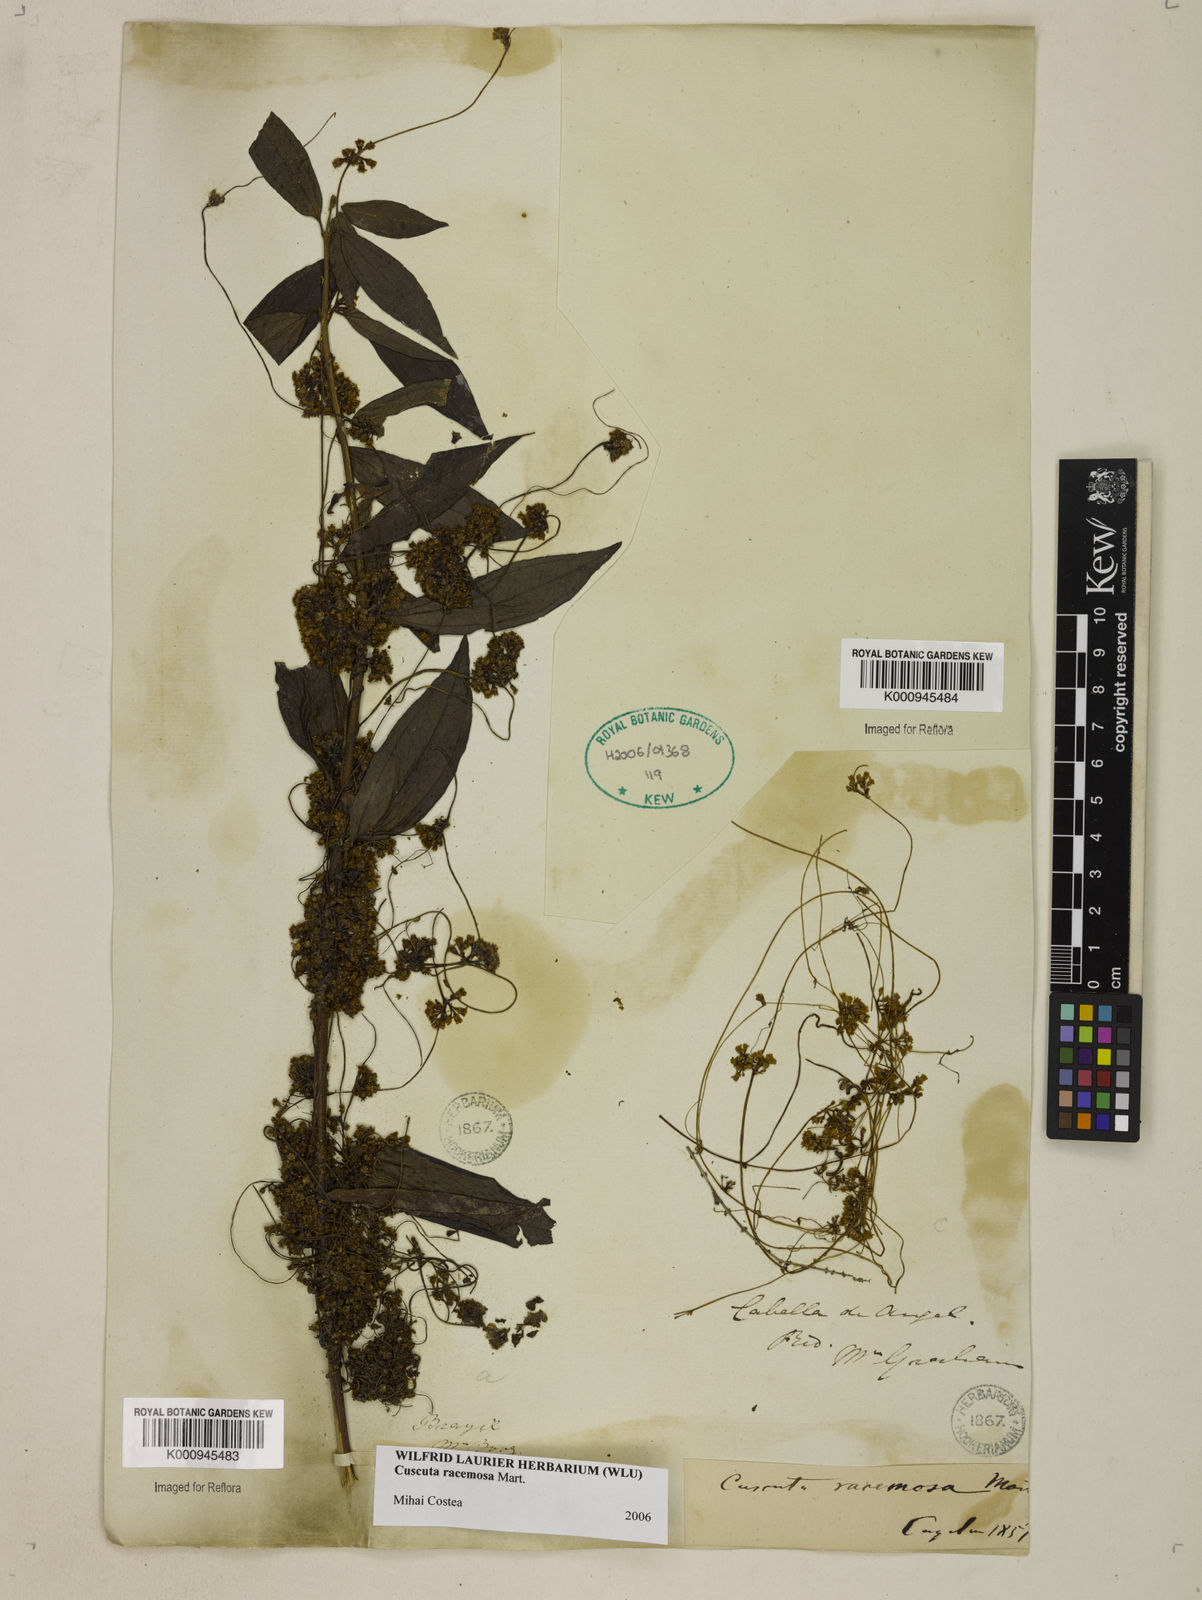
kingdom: Plantae
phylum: Tracheophyta
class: Magnoliopsida
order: Solanales
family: Convolvulaceae
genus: Cuscuta
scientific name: Cuscuta racemosa
